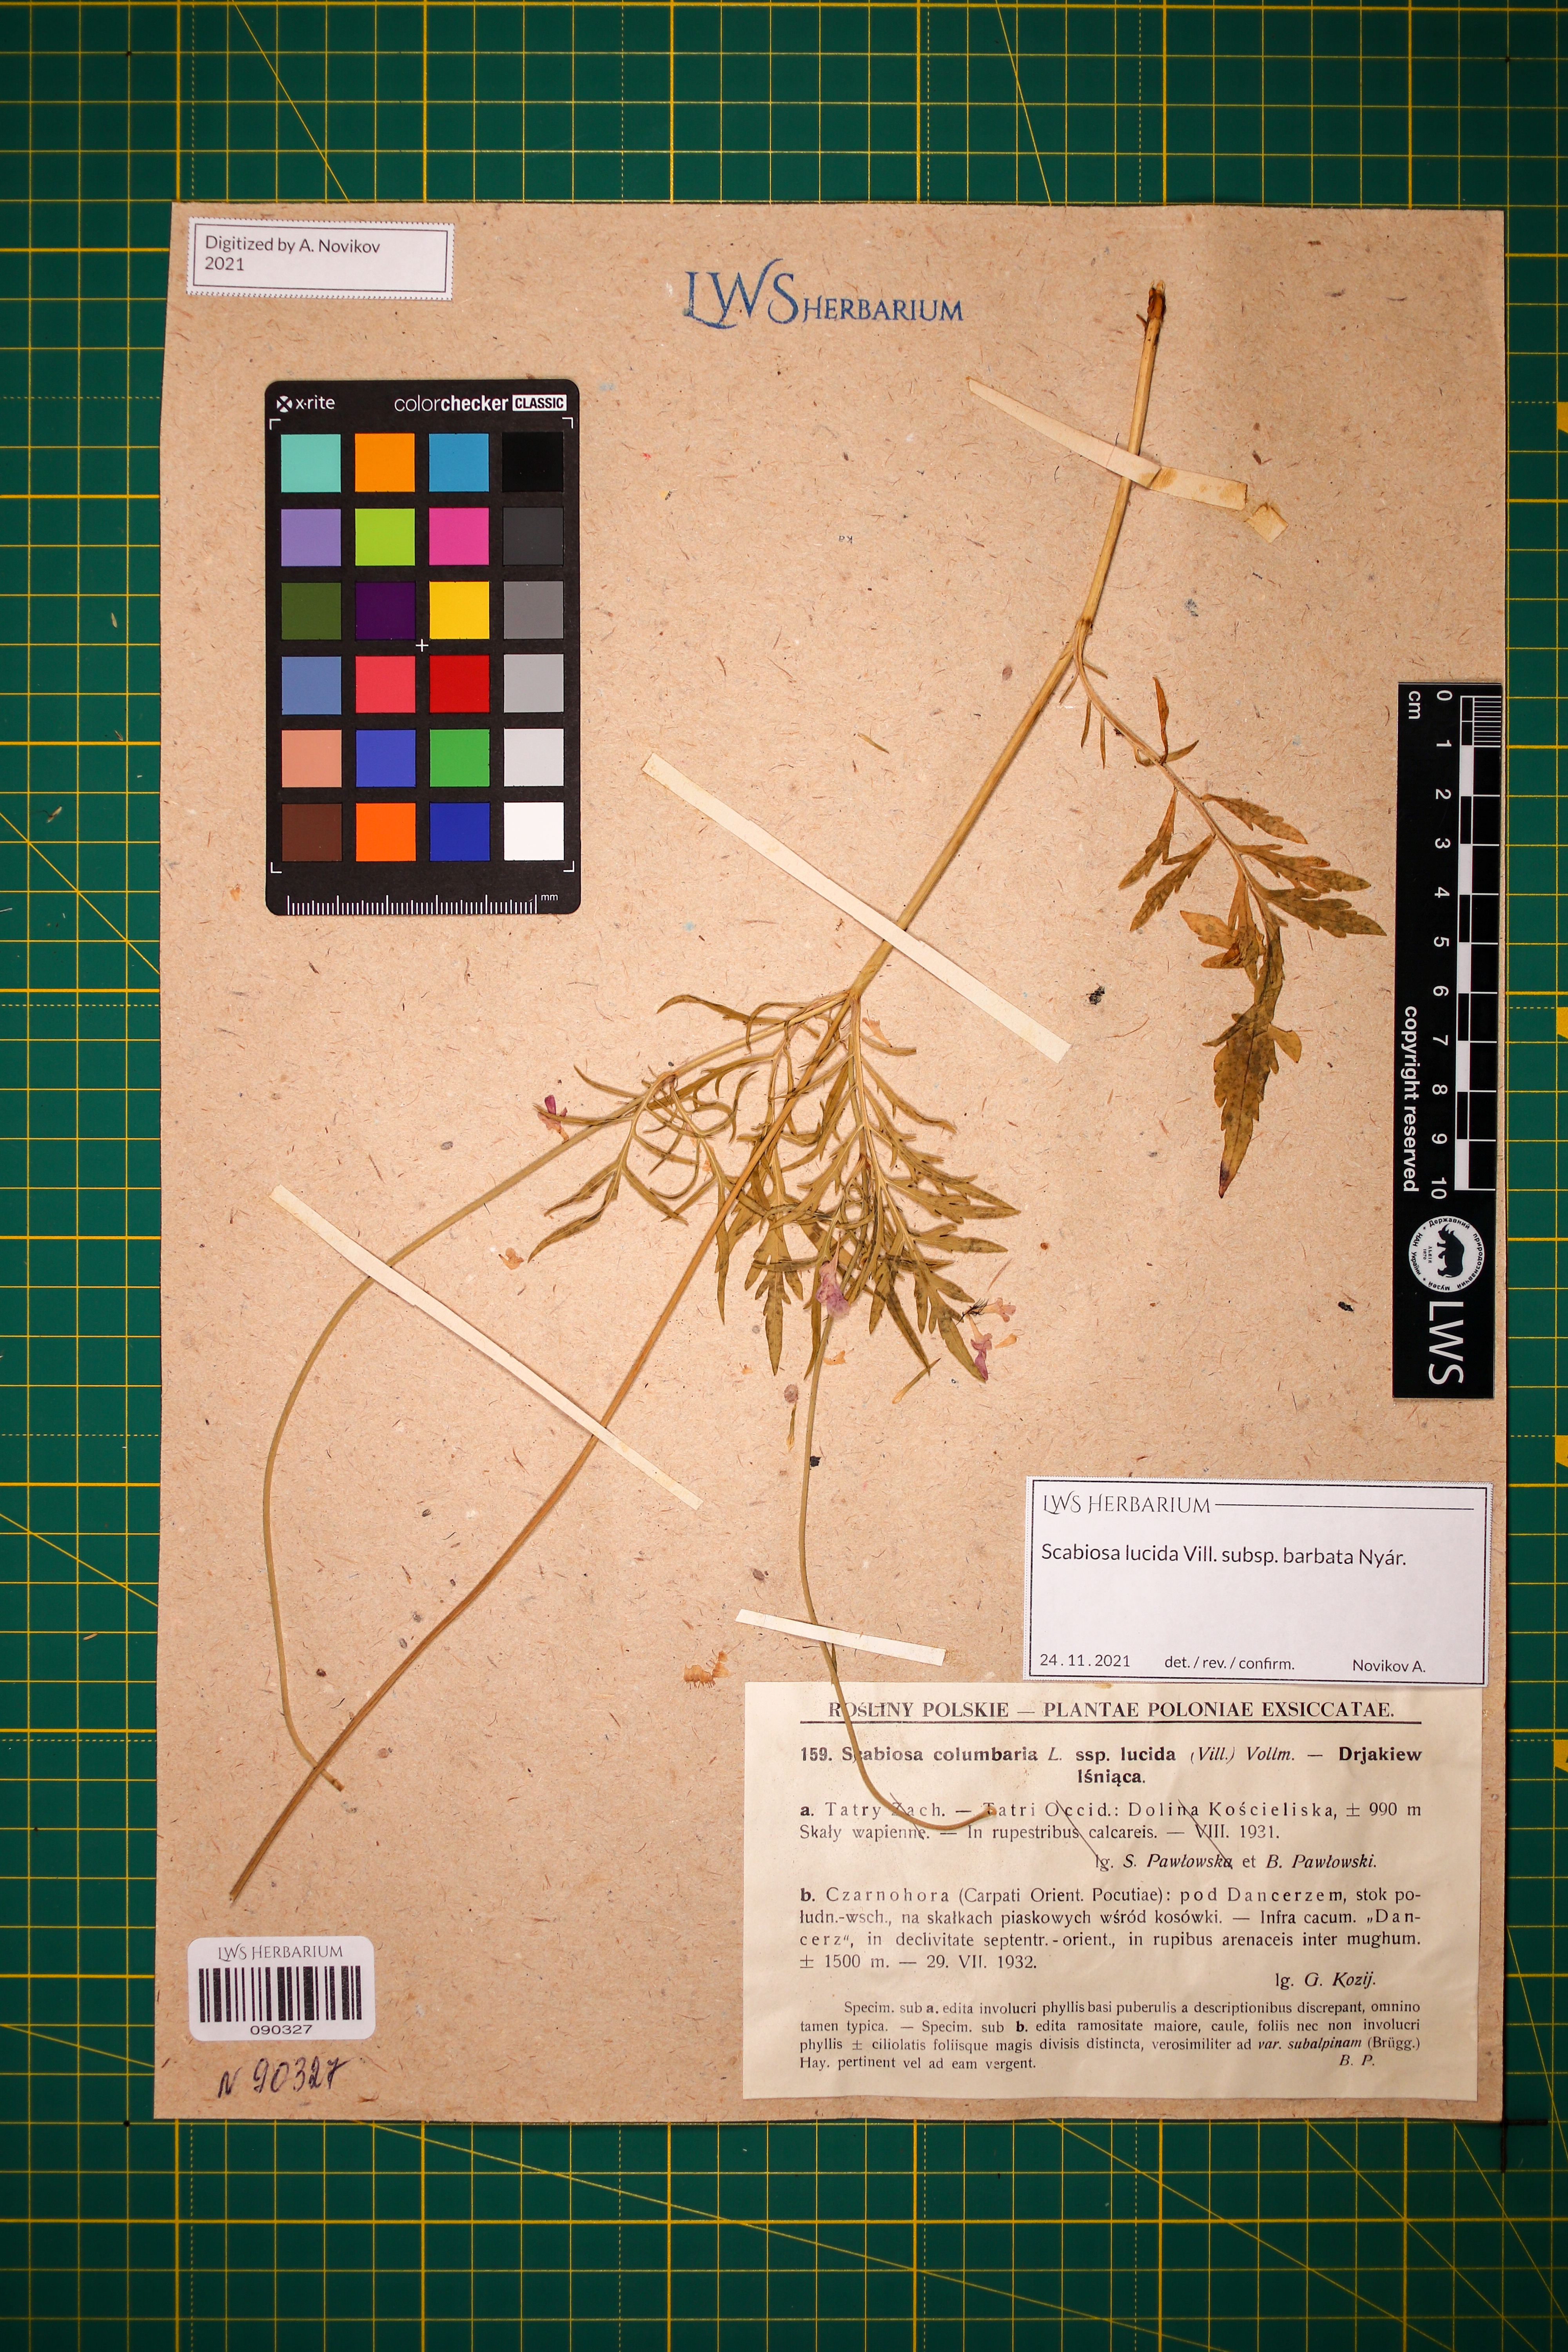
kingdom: Plantae
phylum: Tracheophyta
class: Magnoliopsida
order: Dipsacales
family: Caprifoliaceae
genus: Scabiosa
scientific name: Scabiosa lucida
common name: Shining scabious
